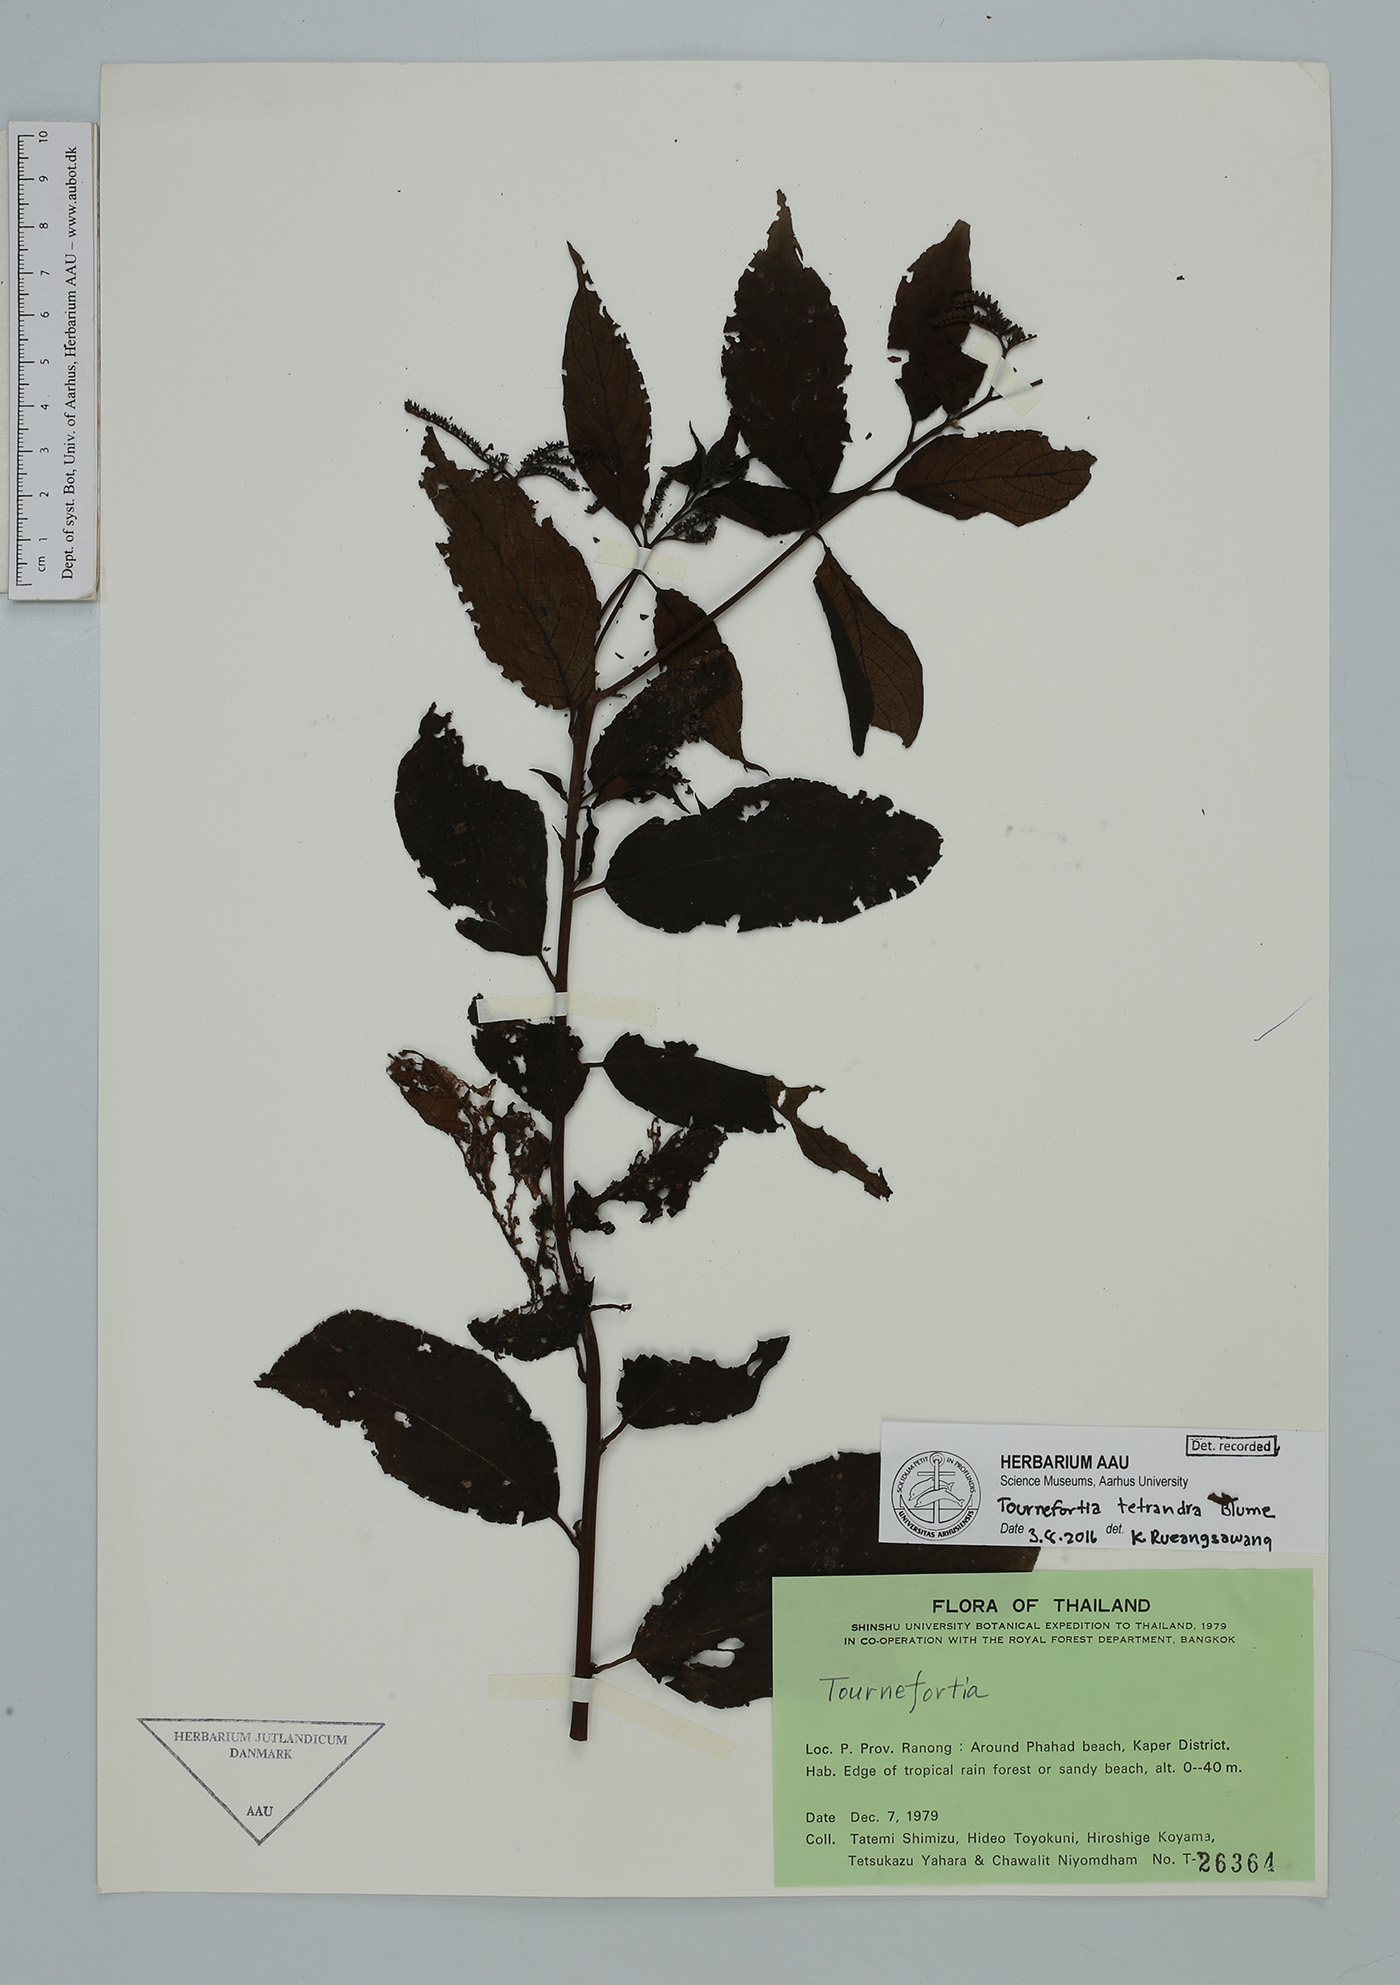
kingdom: Plantae
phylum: Tracheophyta
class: Magnoliopsida
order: Boraginales
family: Heliotropiaceae
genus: Heliotropium
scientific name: Heliotropium biblianum
